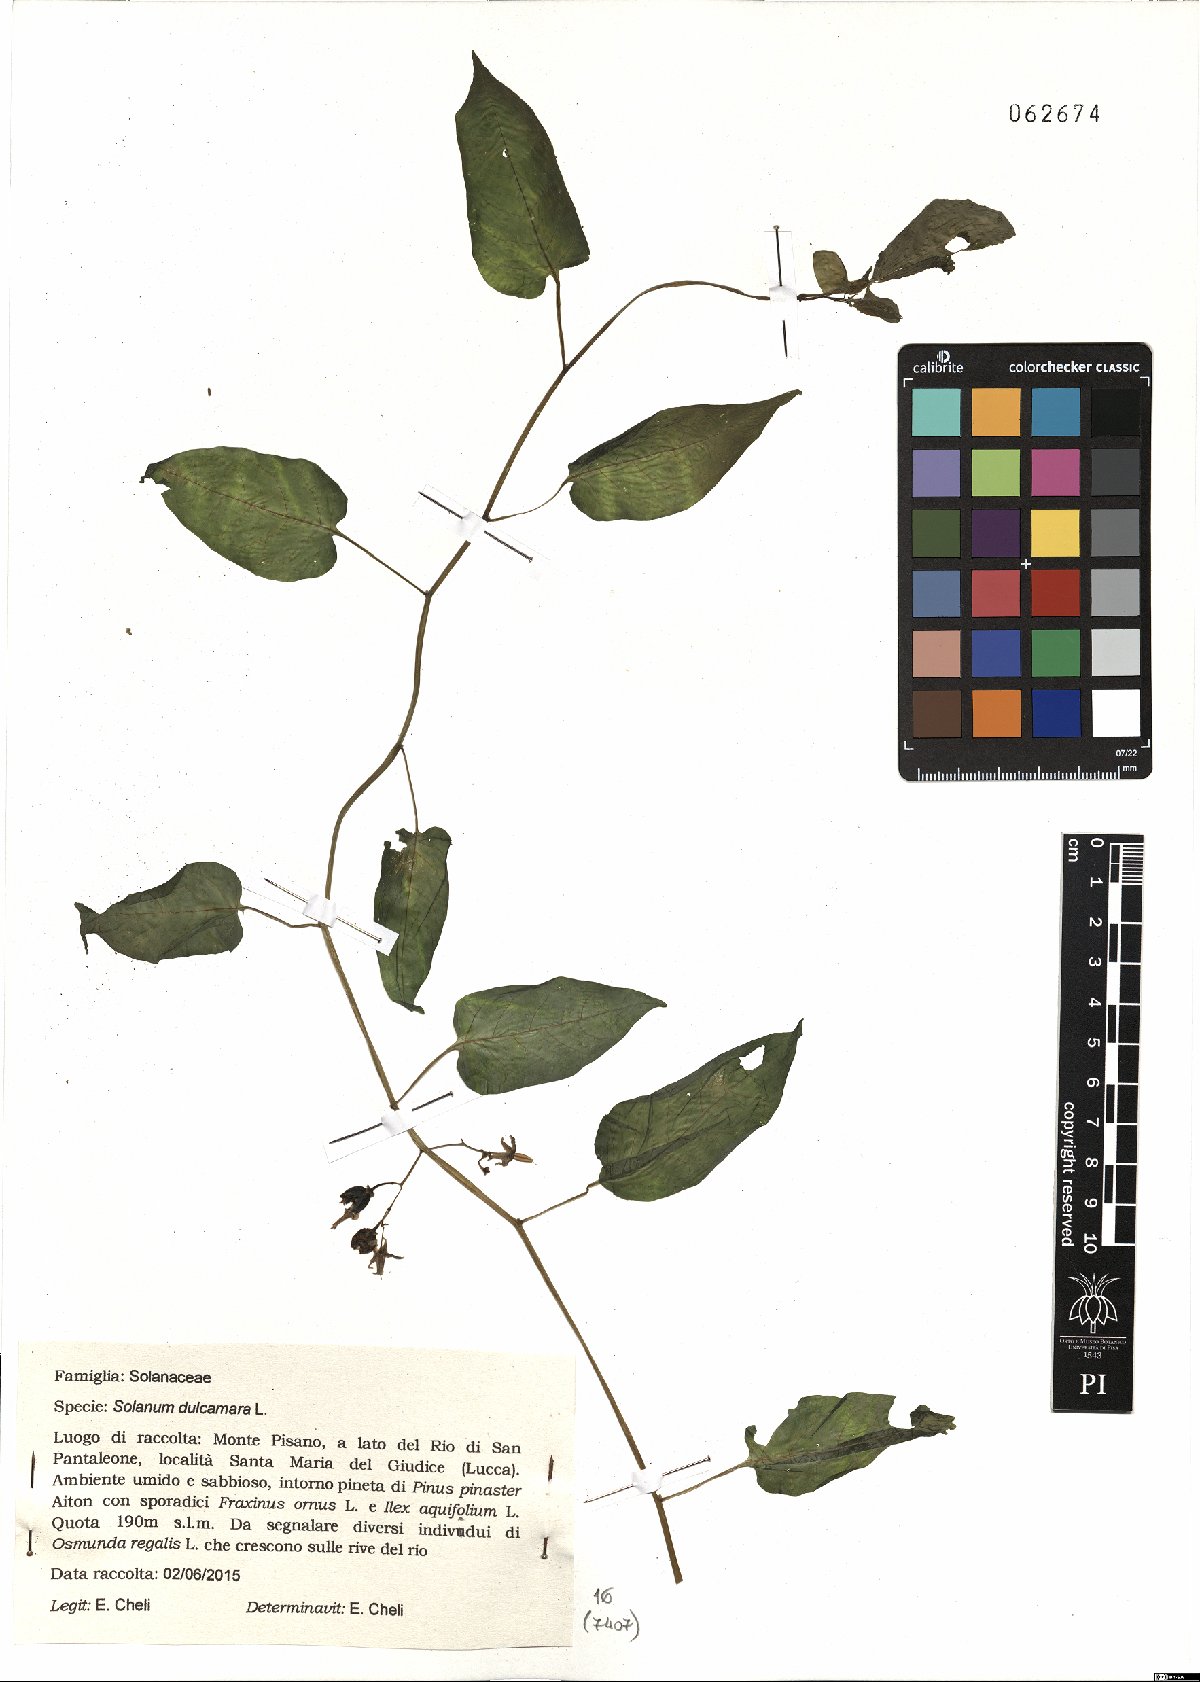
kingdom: Plantae
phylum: Tracheophyta
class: Magnoliopsida
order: Solanales
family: Solanaceae
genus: Solanum
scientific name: Solanum dulcamara
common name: Climbing nightshade
